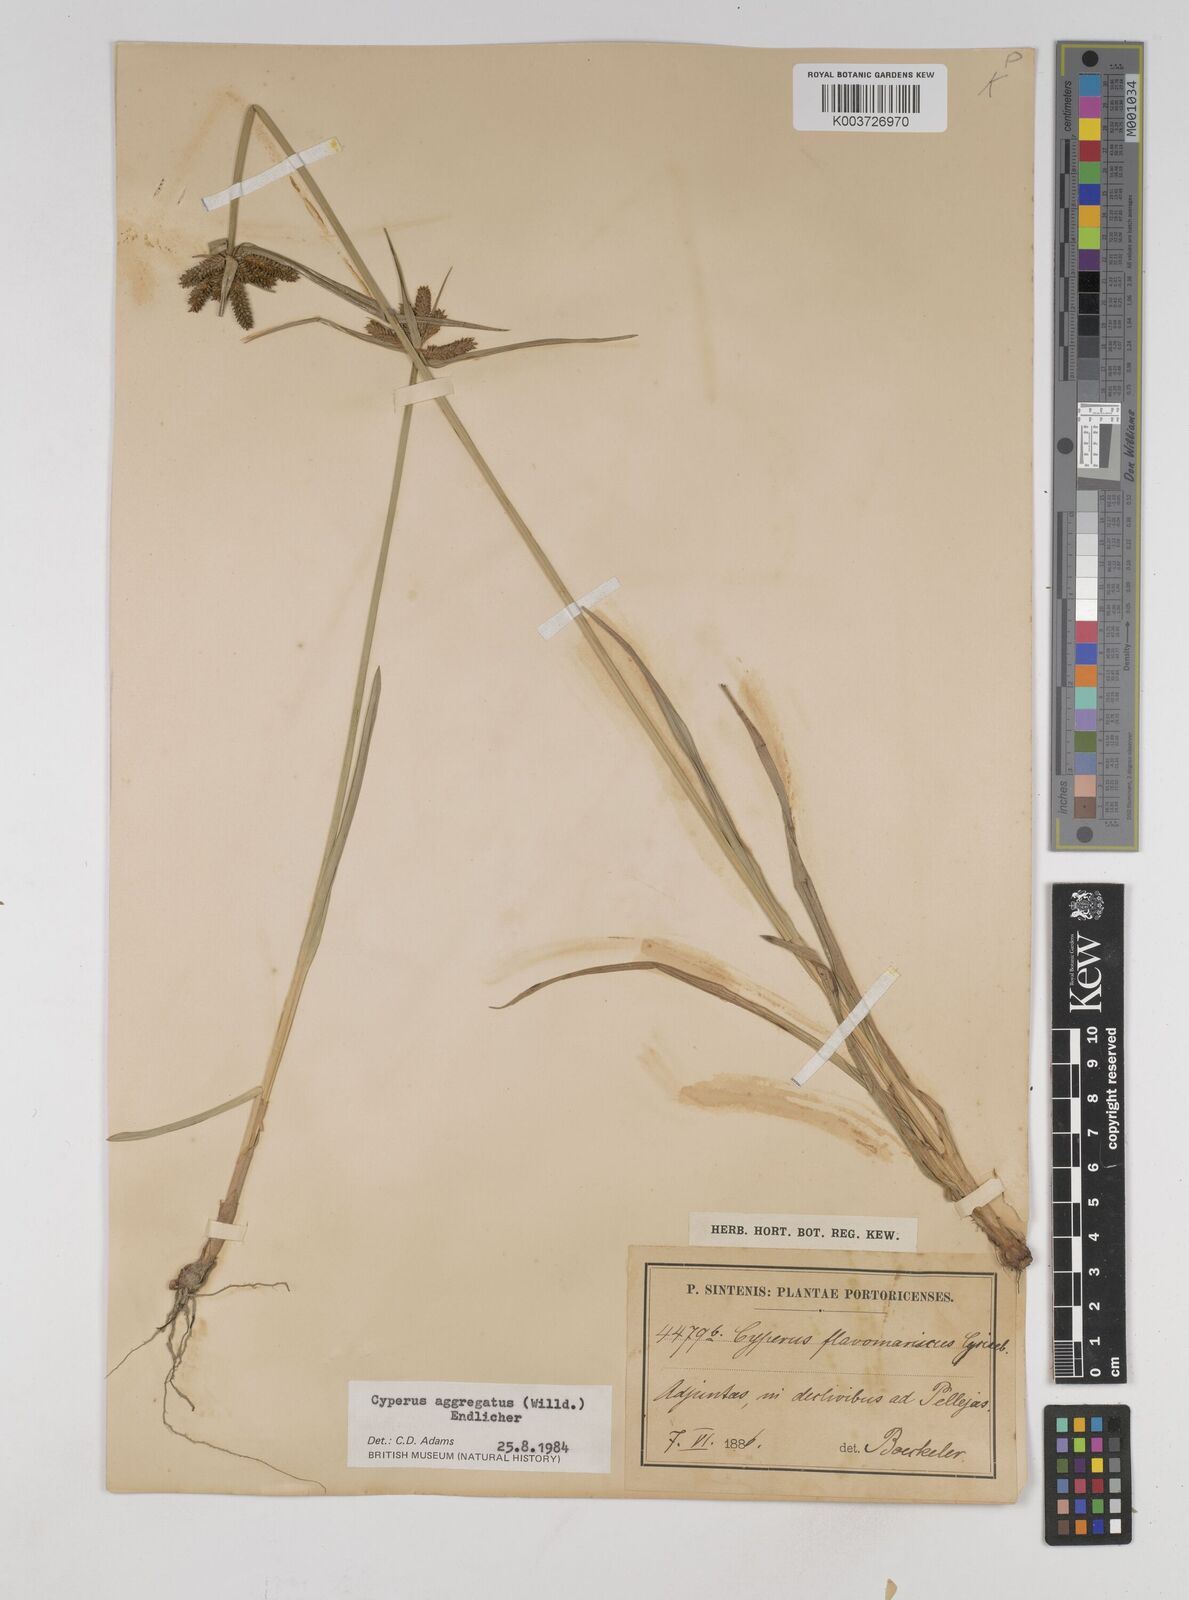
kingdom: Plantae
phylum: Tracheophyta
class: Liliopsida
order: Poales
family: Cyperaceae
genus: Cyperus
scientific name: Cyperus aggregatus
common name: Inflatedscale flatsedge
